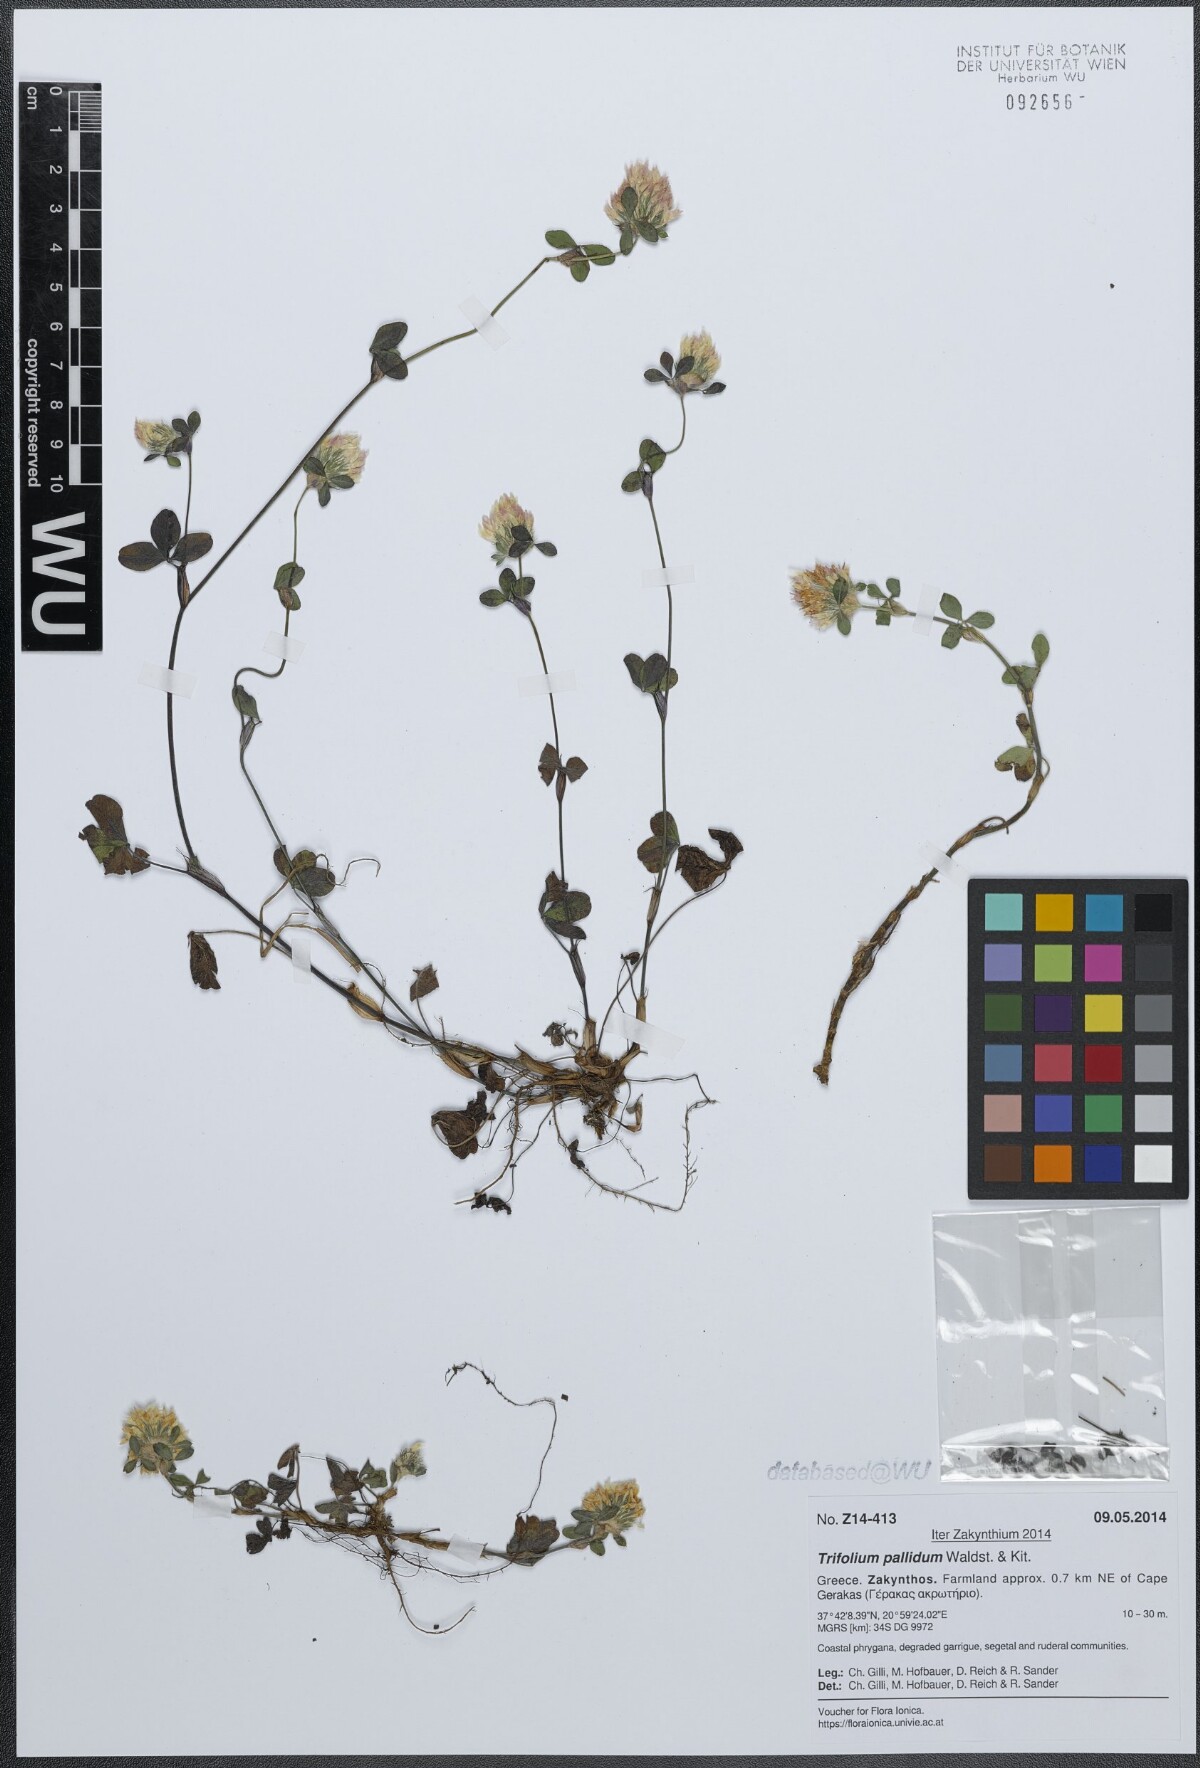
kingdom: Plantae
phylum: Tracheophyta
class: Magnoliopsida
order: Fabales
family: Fabaceae
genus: Trifolium
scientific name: Trifolium pallidum
